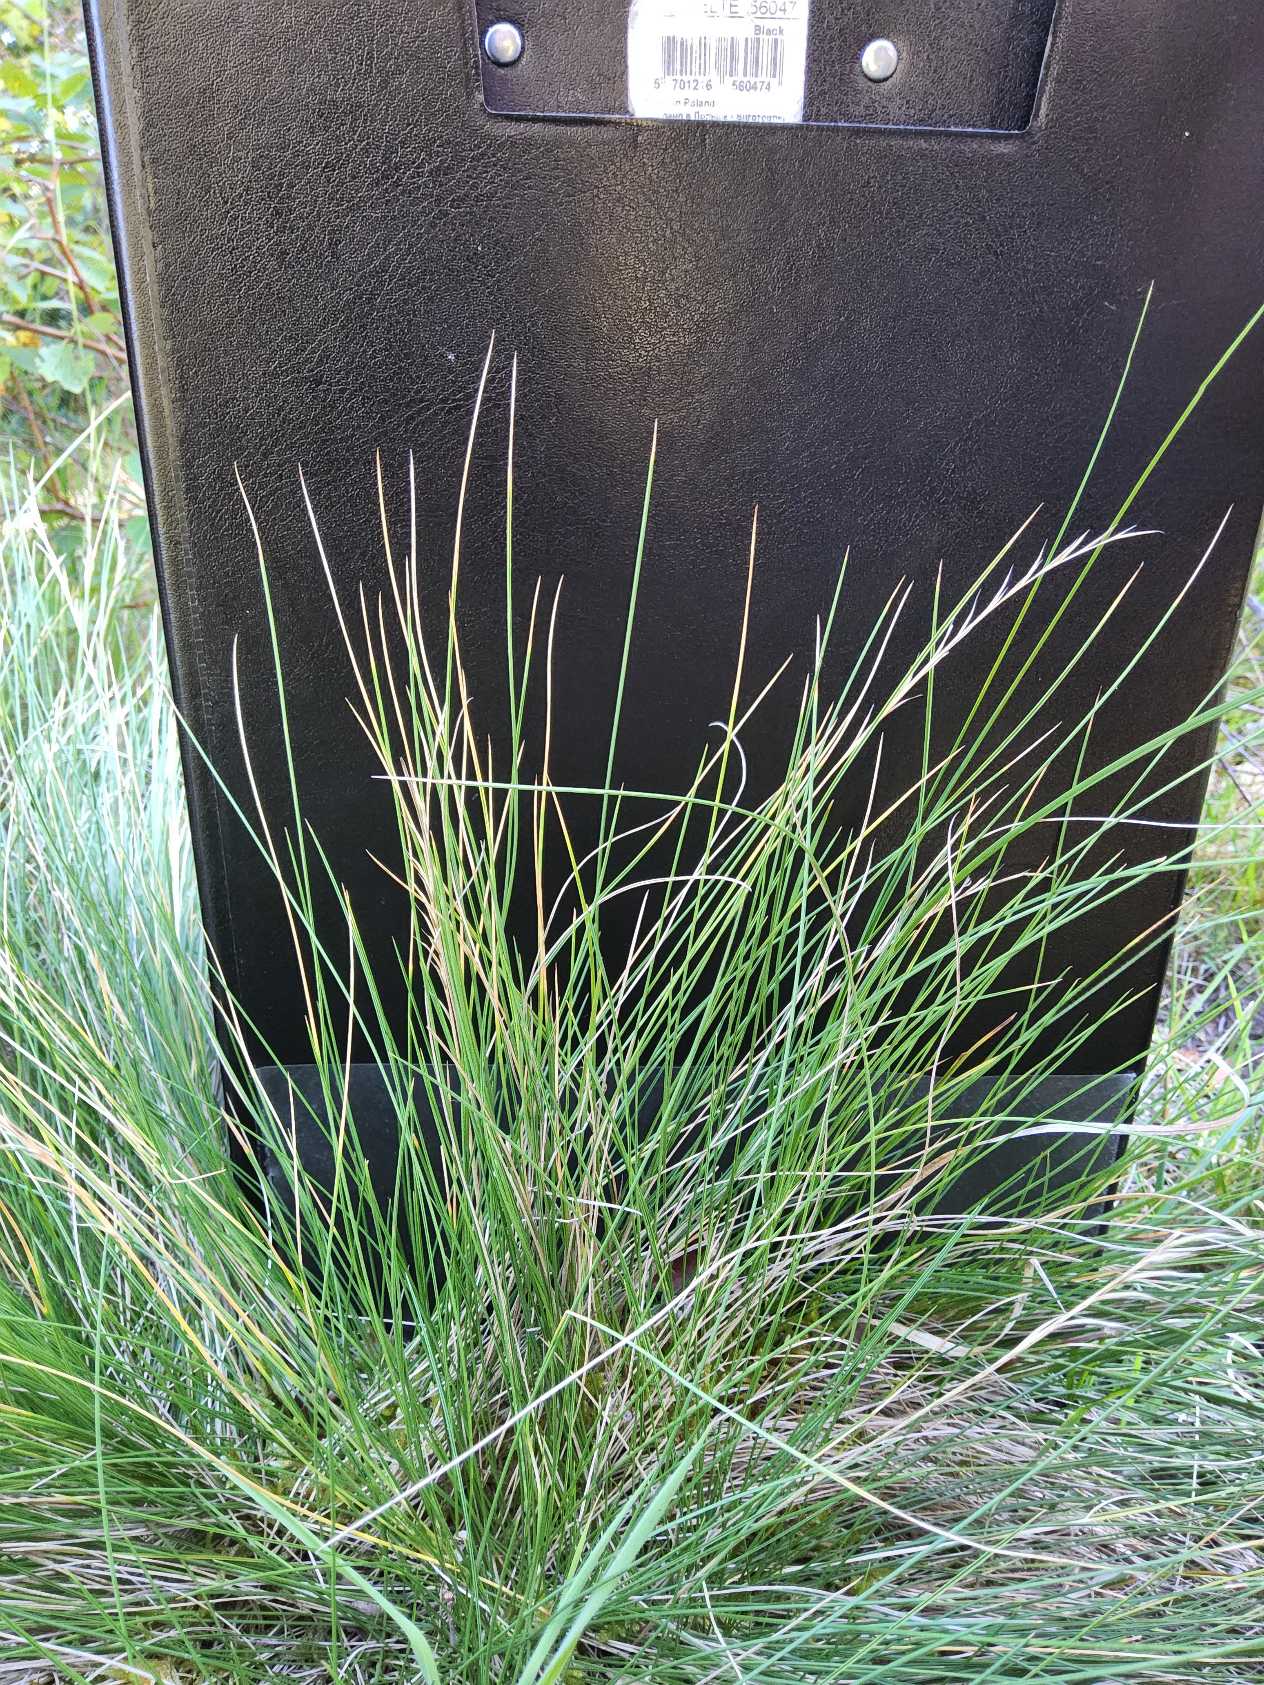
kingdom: Plantae
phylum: Tracheophyta
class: Liliopsida
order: Poales
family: Poaceae
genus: Nardus
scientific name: Nardus stricta
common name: Katteskæg
